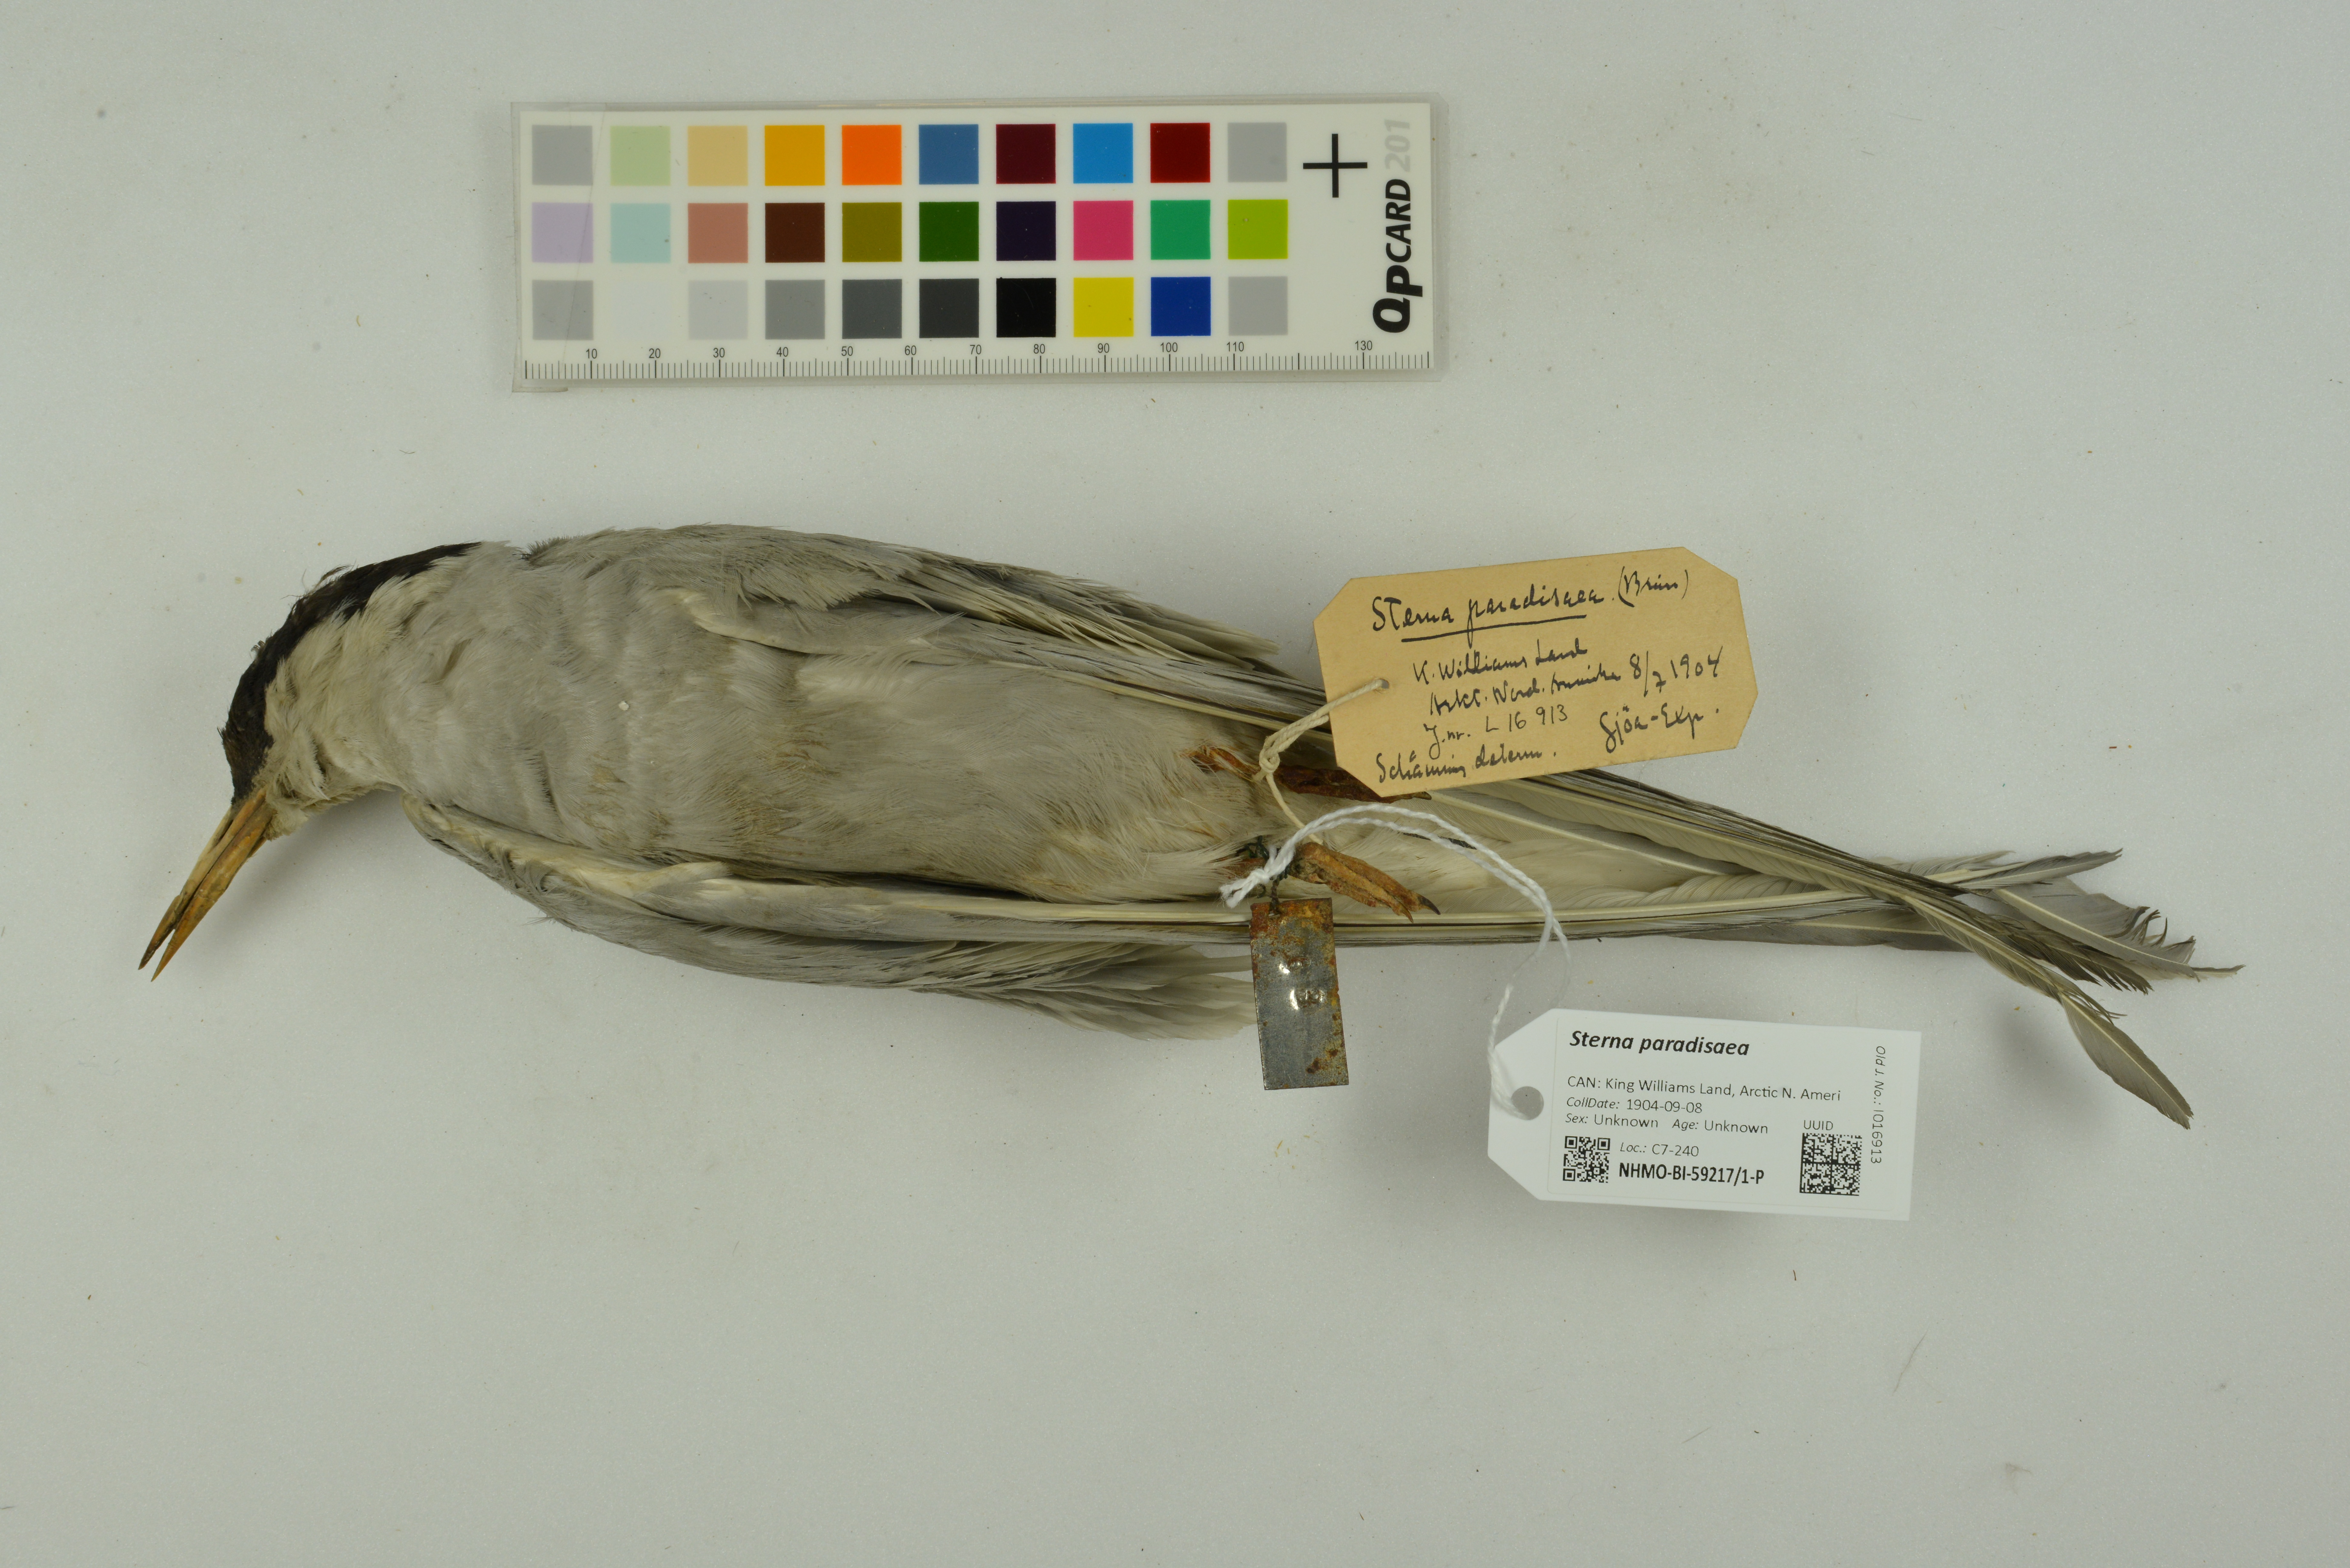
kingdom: Animalia
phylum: Chordata
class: Aves
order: Charadriiformes
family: Laridae
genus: Sterna
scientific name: Sterna paradisaea
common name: Arctic tern
